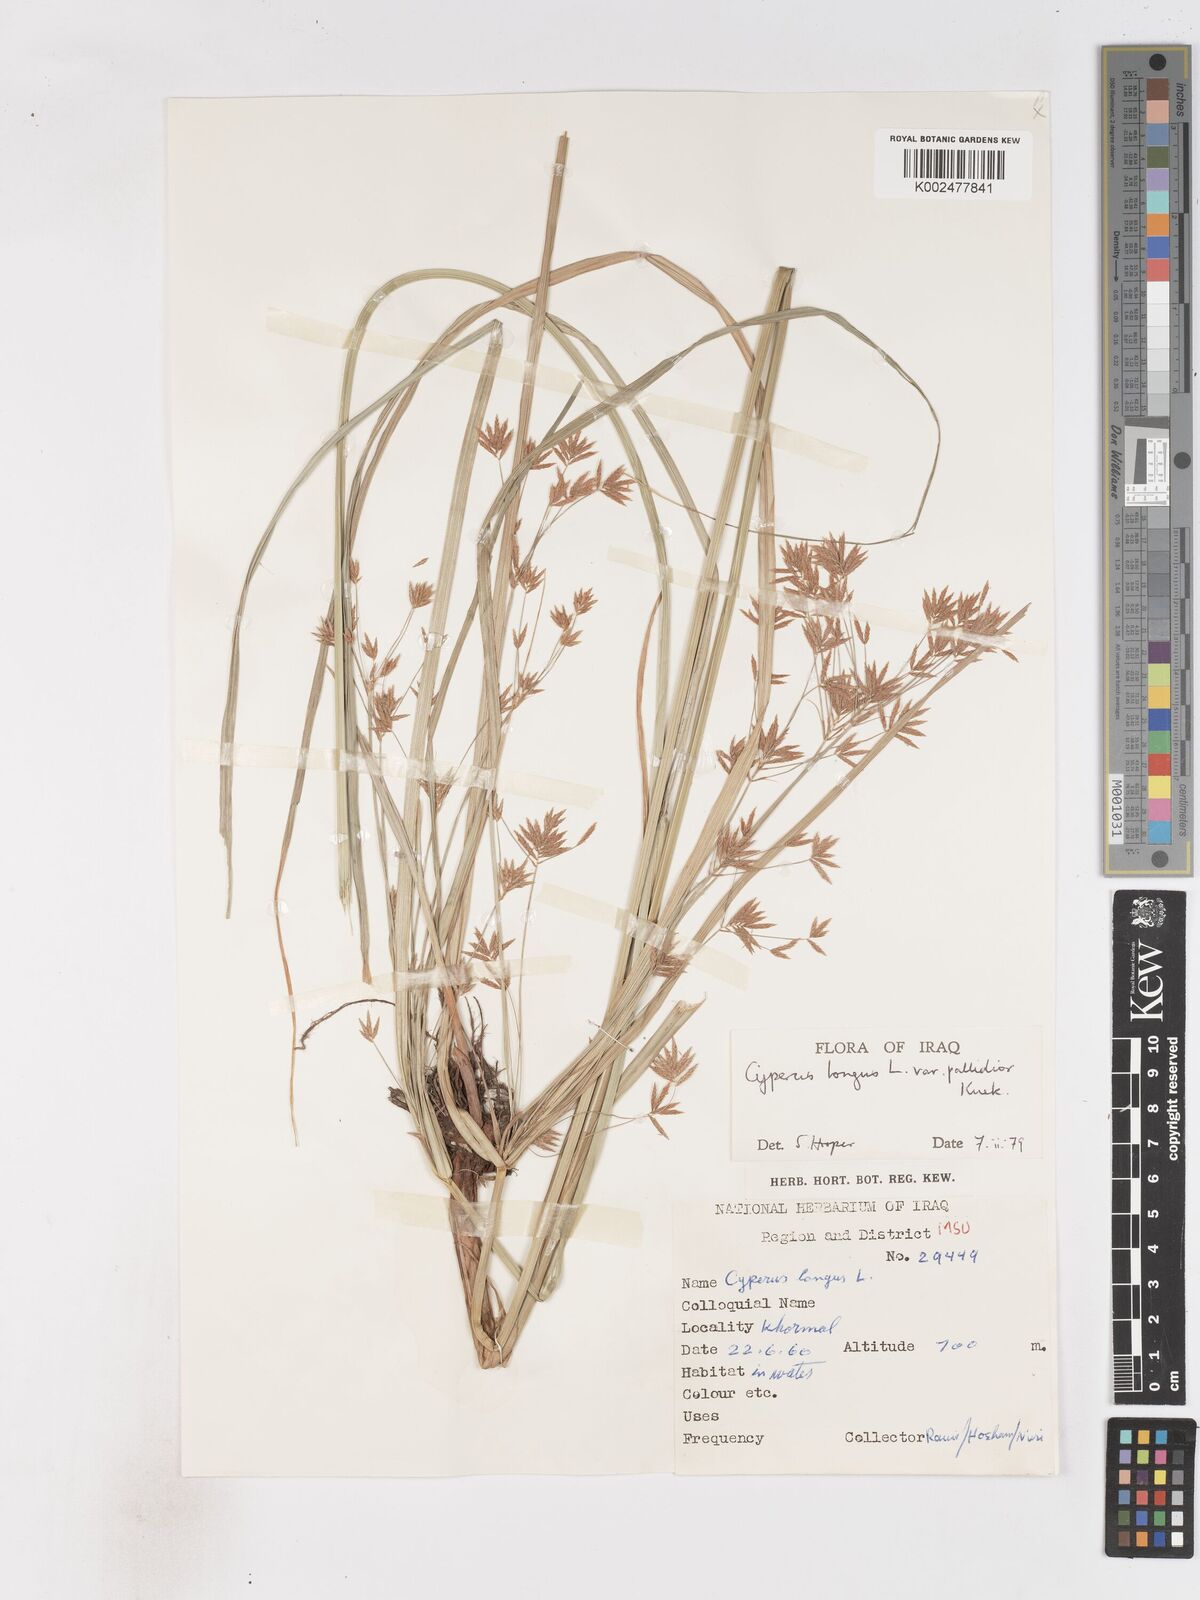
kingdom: Plantae
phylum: Tracheophyta
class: Liliopsida
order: Poales
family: Cyperaceae
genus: Cyperus
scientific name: Cyperus longus
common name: Galingale
